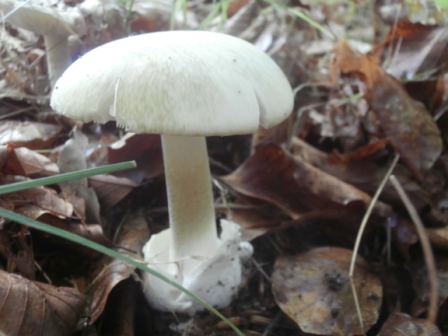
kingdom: Fungi
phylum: Basidiomycota
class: Agaricomycetes
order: Agaricales
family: Amanitaceae
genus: Amanita
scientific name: Amanita phalloides
